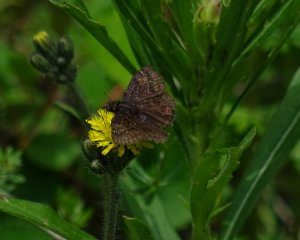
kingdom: Animalia
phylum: Arthropoda
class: Insecta
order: Lepidoptera
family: Hesperiidae
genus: Gesta
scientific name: Gesta
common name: Wild Indigo Duskywing
